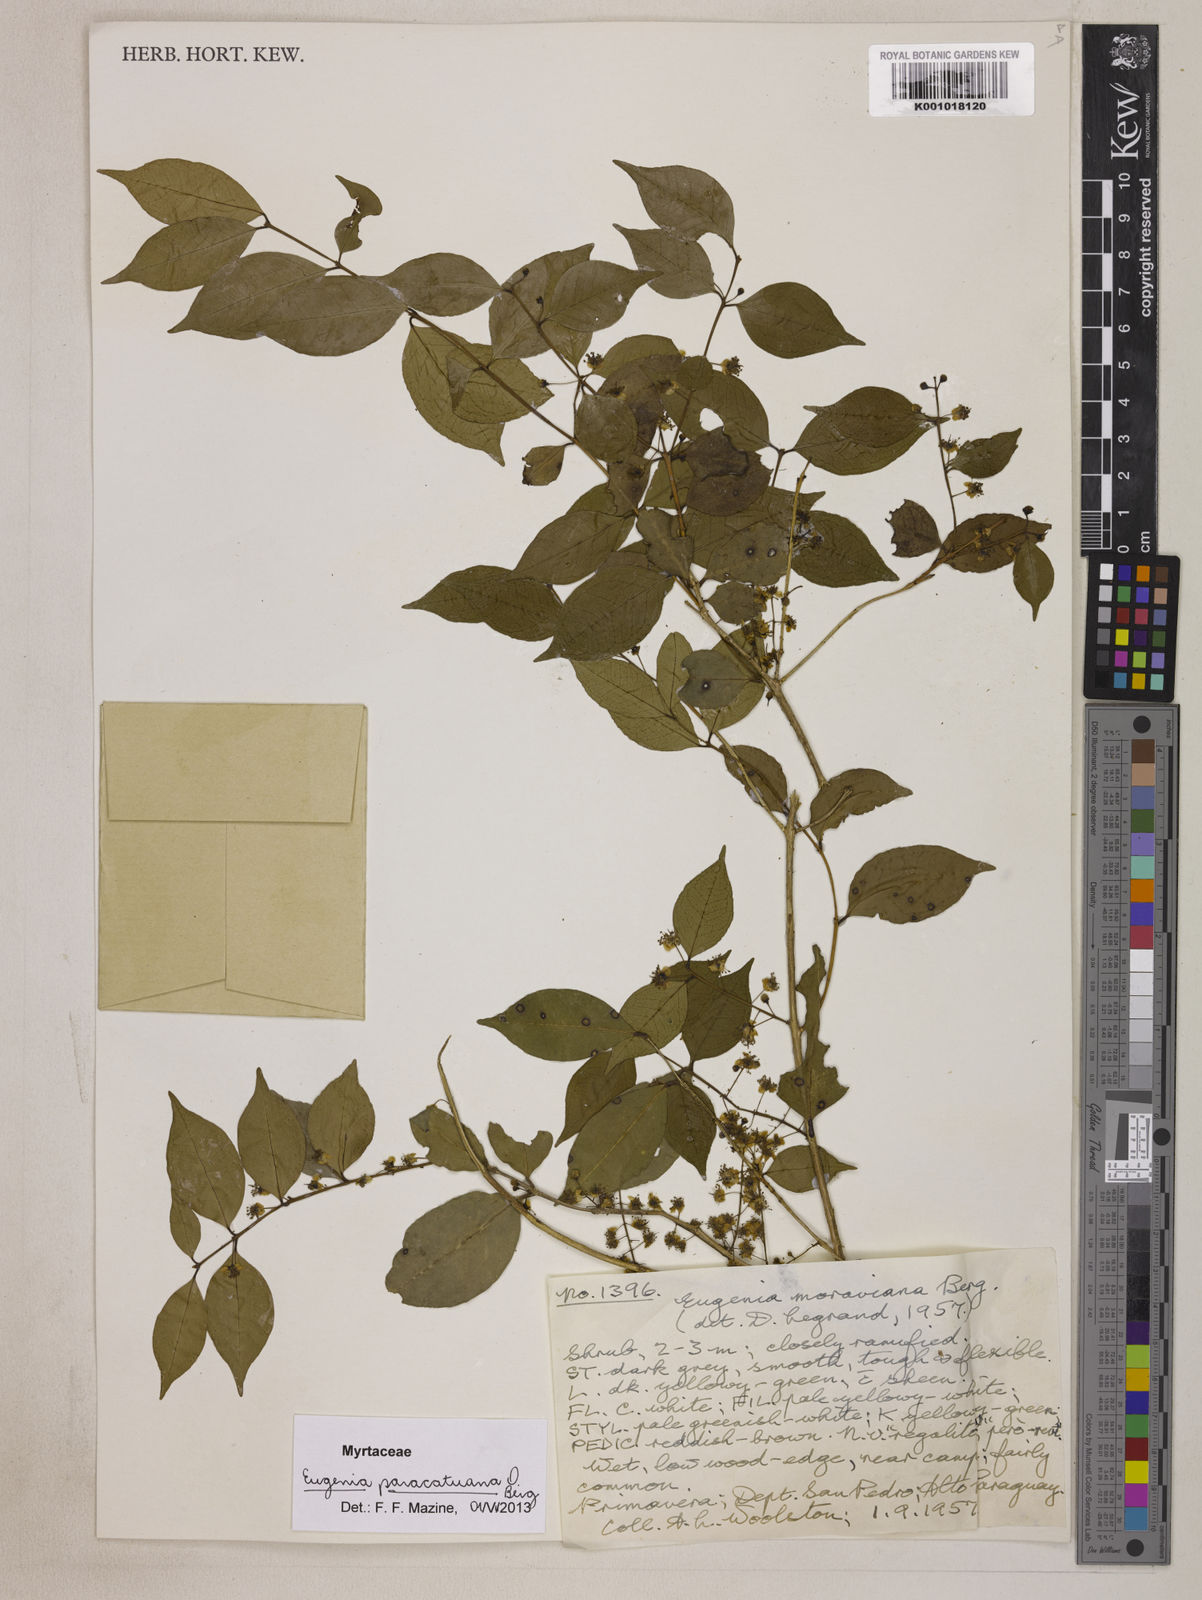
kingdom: Plantae
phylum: Tracheophyta
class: Magnoliopsida
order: Myrtales
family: Myrtaceae
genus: Eugenia
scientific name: Eugenia moraviana
